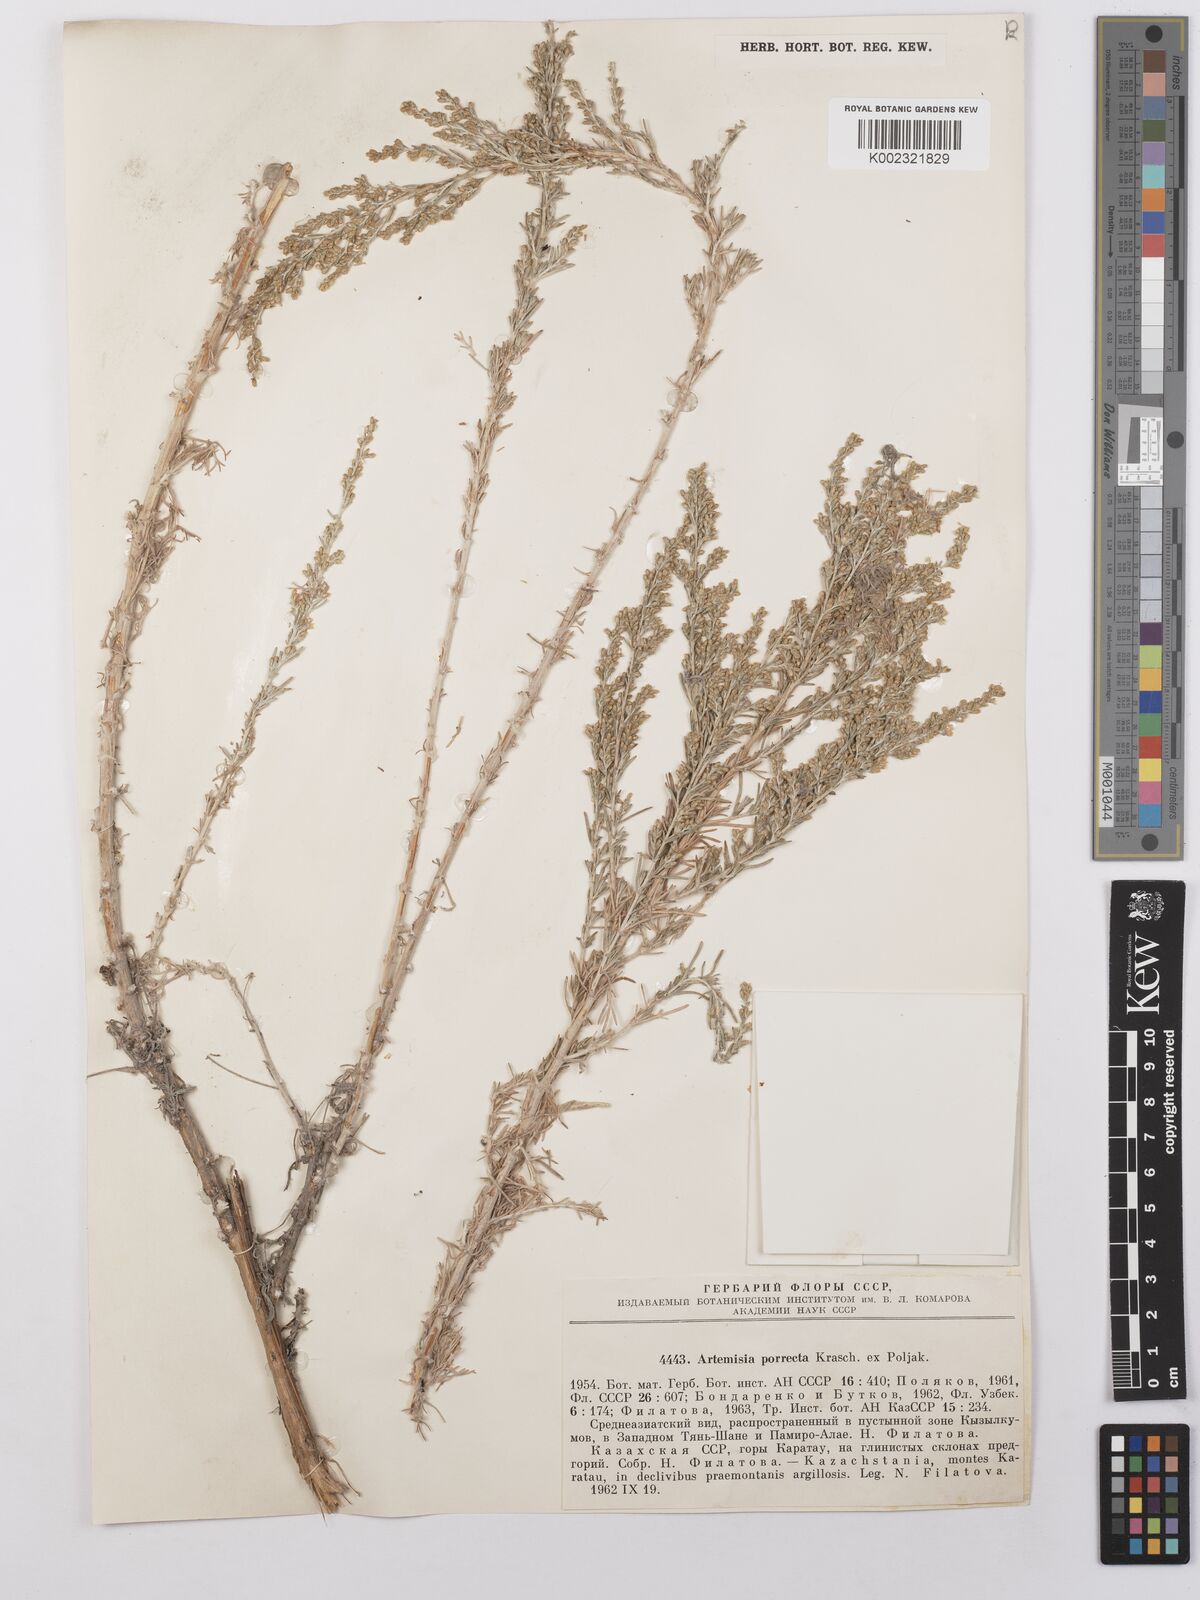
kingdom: Plantae
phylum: Tracheophyta
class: Magnoliopsida
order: Asterales
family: Asteraceae
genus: Artemisia
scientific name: Artemisia porrecta
